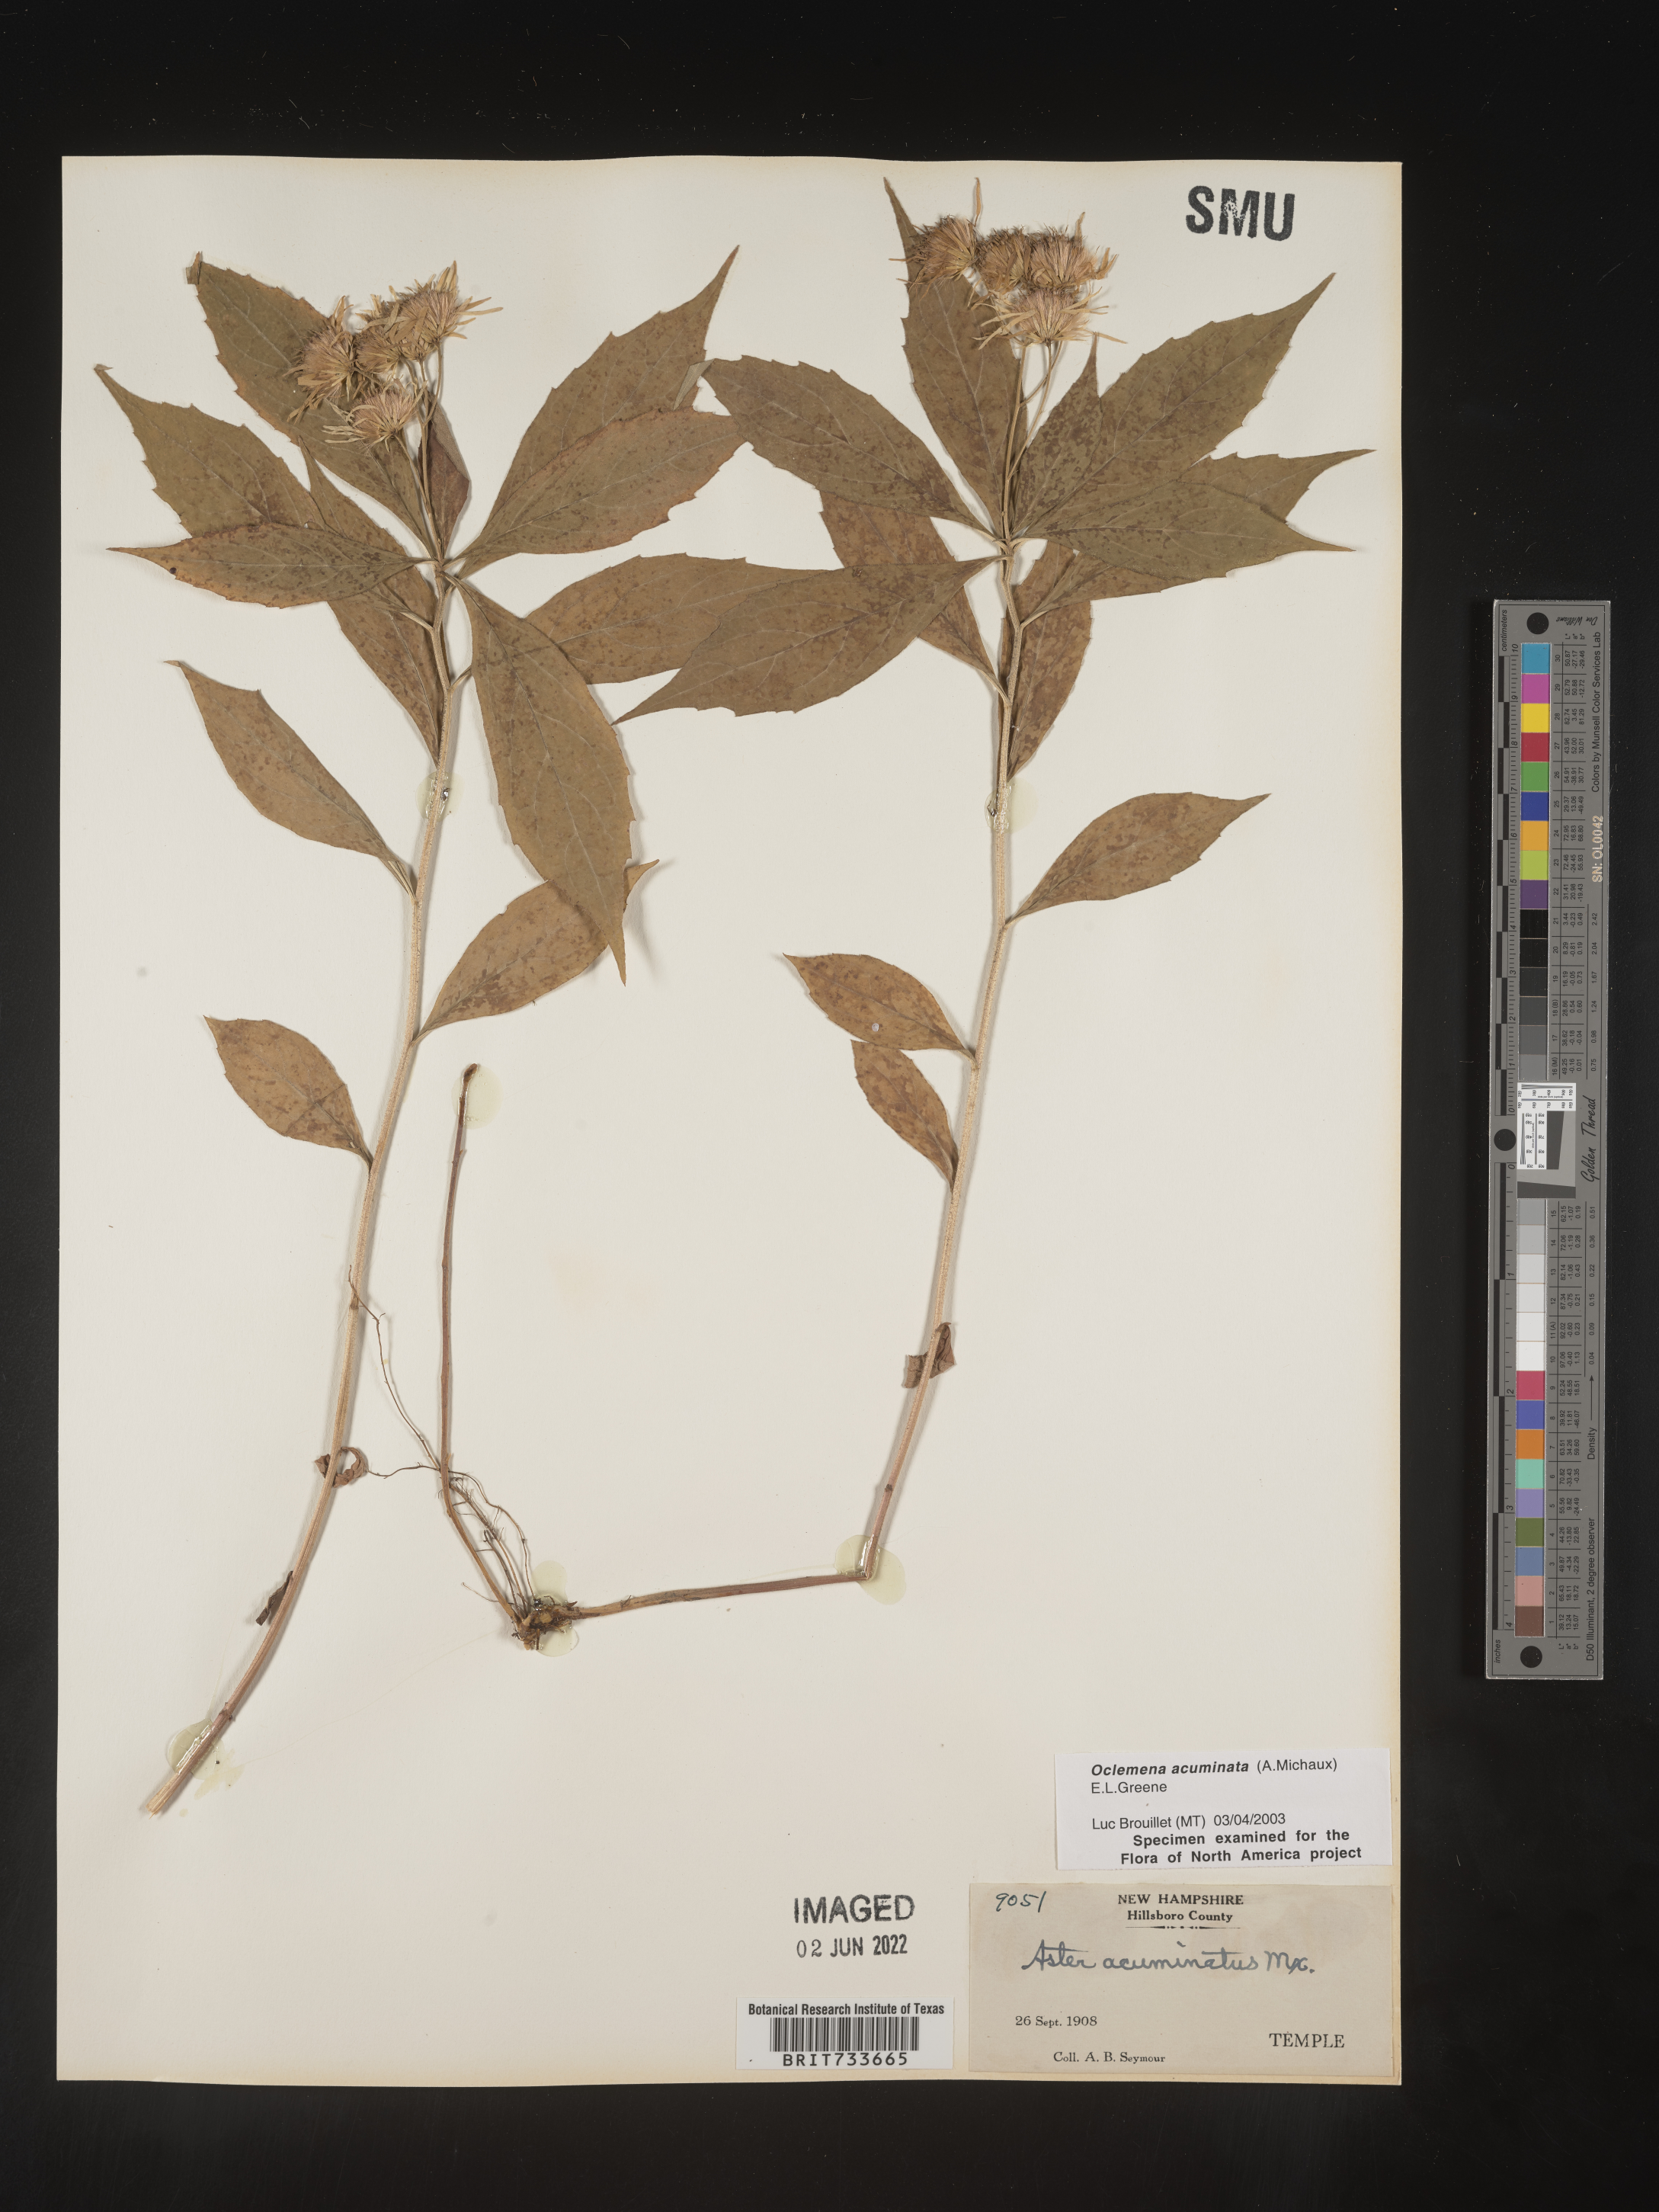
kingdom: Plantae
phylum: Tracheophyta
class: Magnoliopsida
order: Asterales
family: Asteraceae
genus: Oclemena
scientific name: Oclemena acuminata
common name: Mountain aster
